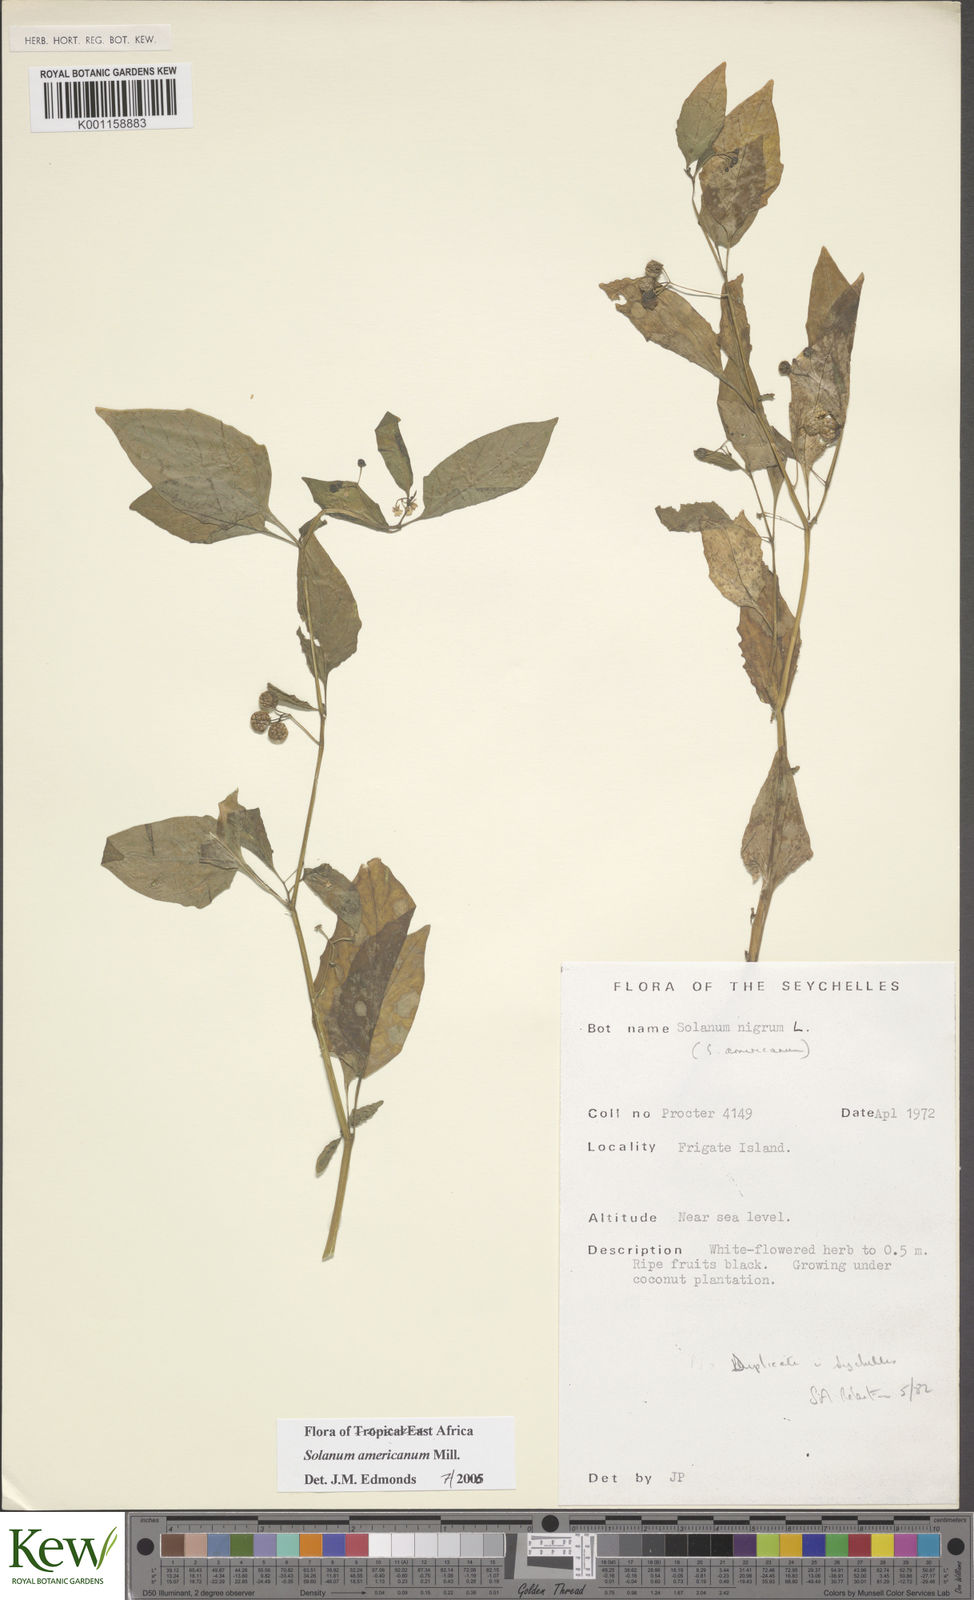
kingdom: Plantae
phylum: Tracheophyta
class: Magnoliopsida
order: Solanales
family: Solanaceae
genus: Solanum
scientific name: Solanum americanum
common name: American black nightshade
